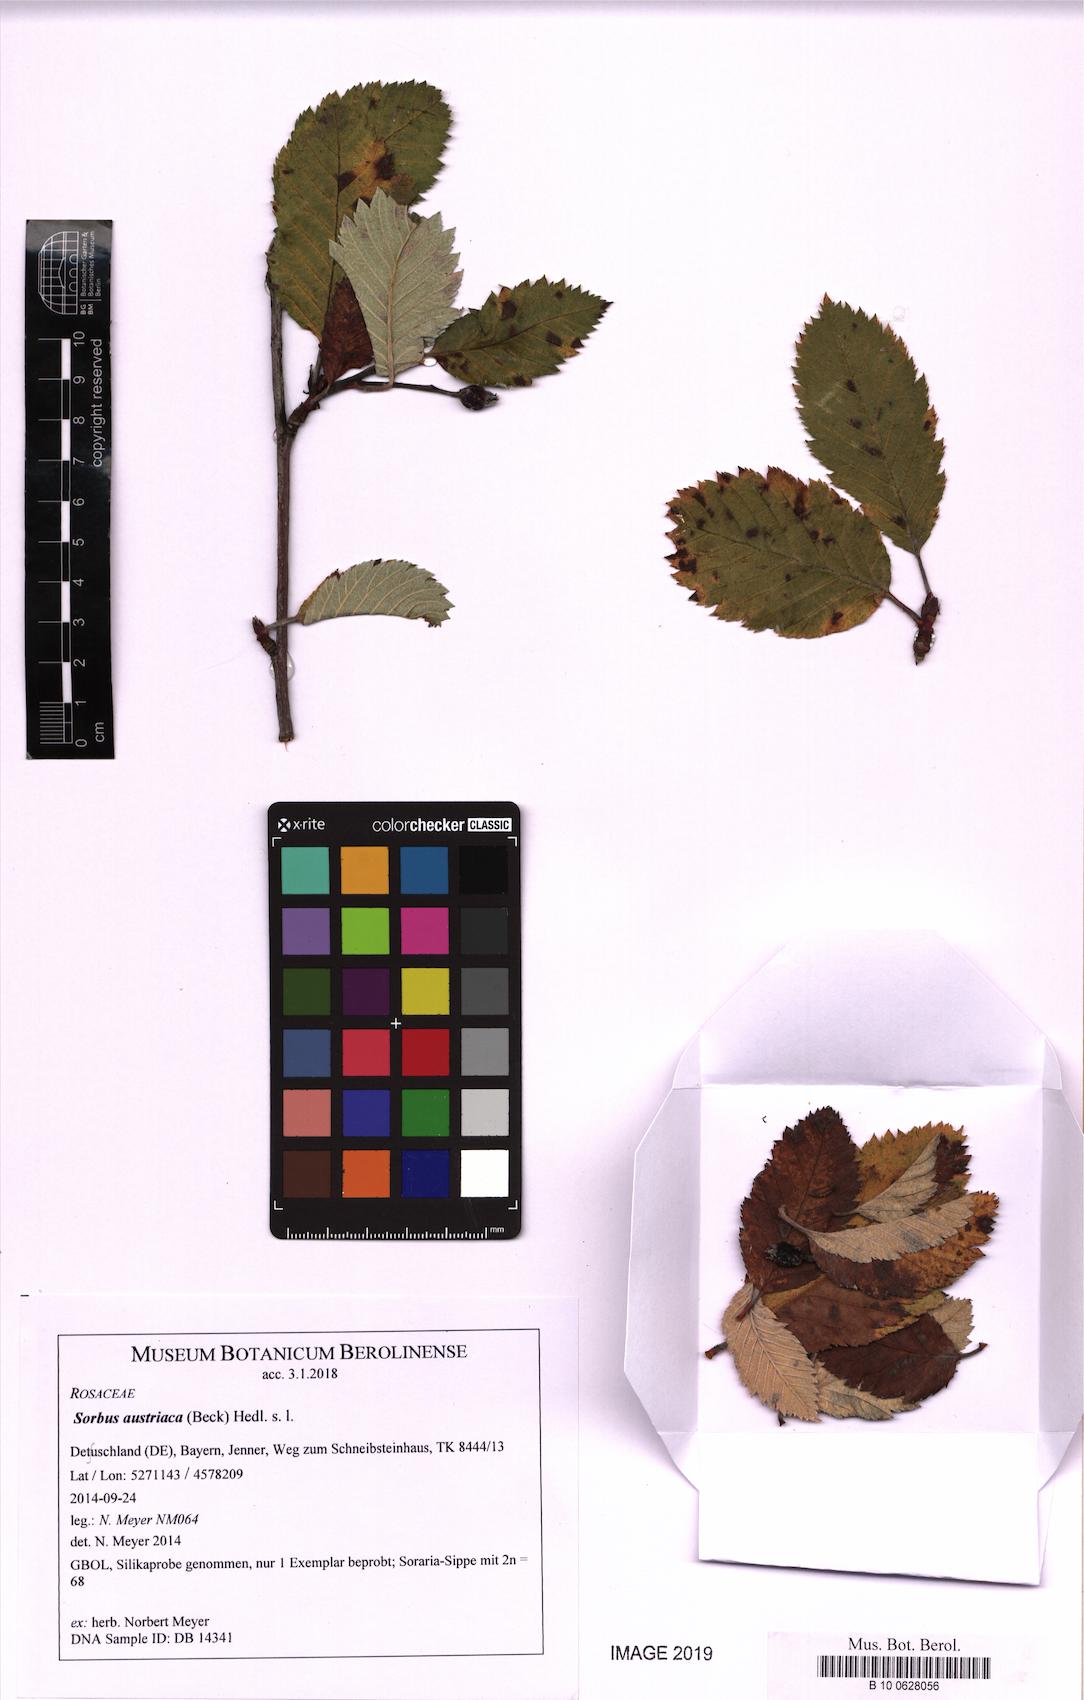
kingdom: Plantae
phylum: Tracheophyta
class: Magnoliopsida
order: Rosales
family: Rosaceae
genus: Hedlundia
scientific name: Hedlundia austriaca
